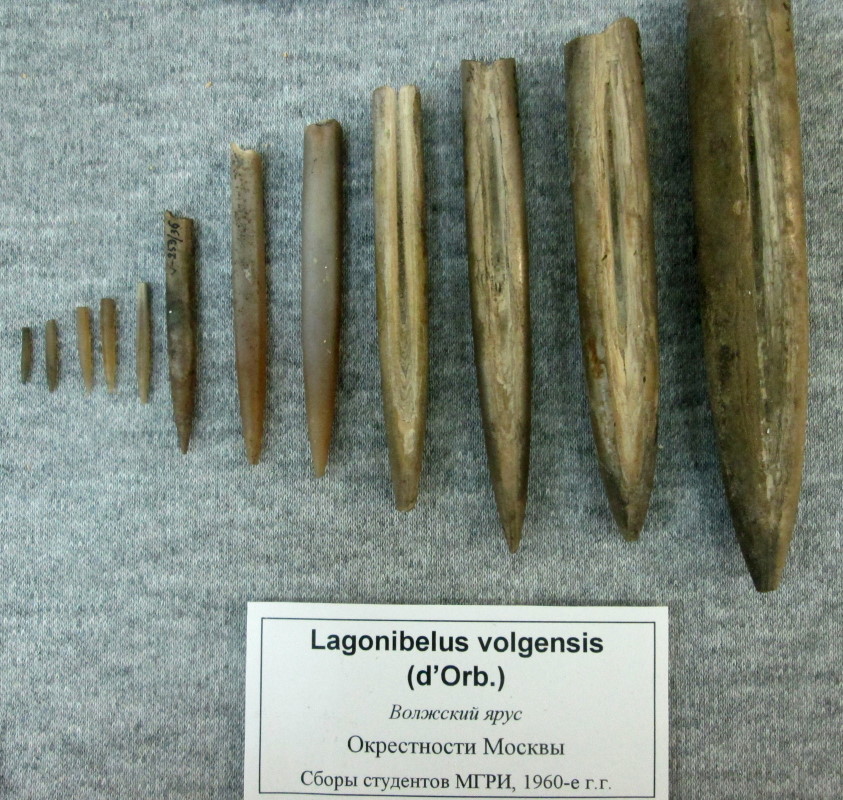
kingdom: Animalia
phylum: Mollusca
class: Cephalopoda
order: Belemnitida
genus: Lagonibelus
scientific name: Lagonibelus
